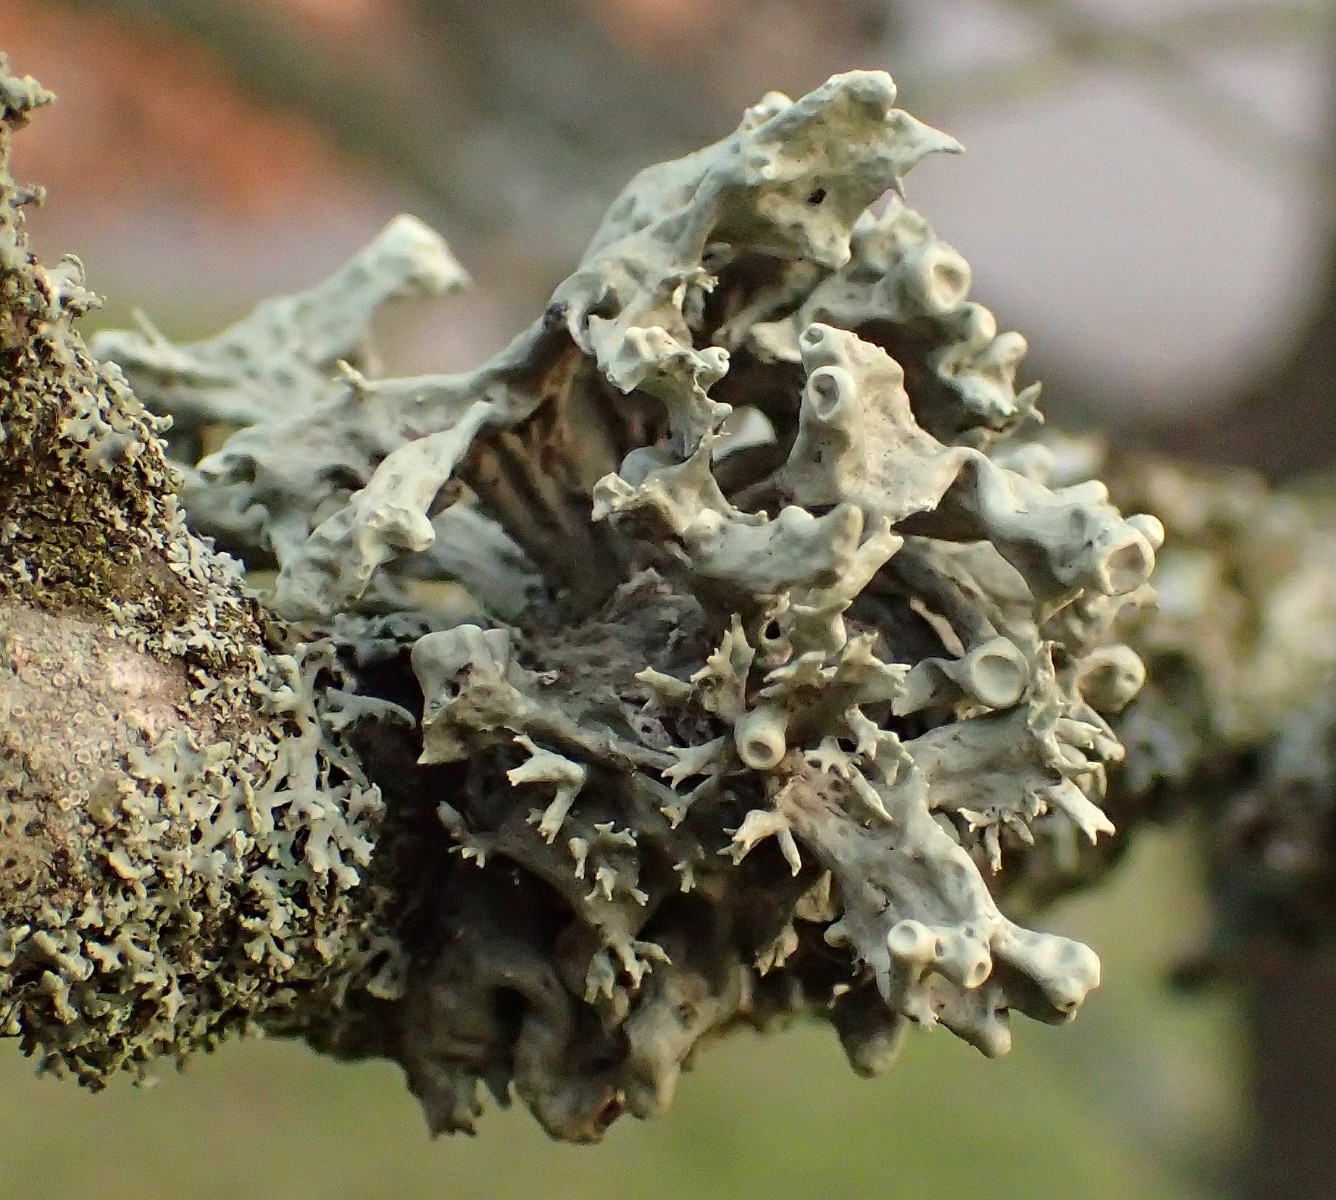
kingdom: Fungi
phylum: Ascomycota
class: Lecanoromycetes
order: Lecanorales
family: Ramalinaceae
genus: Ramalina
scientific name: Ramalina fastigiata
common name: tue-grenlav
